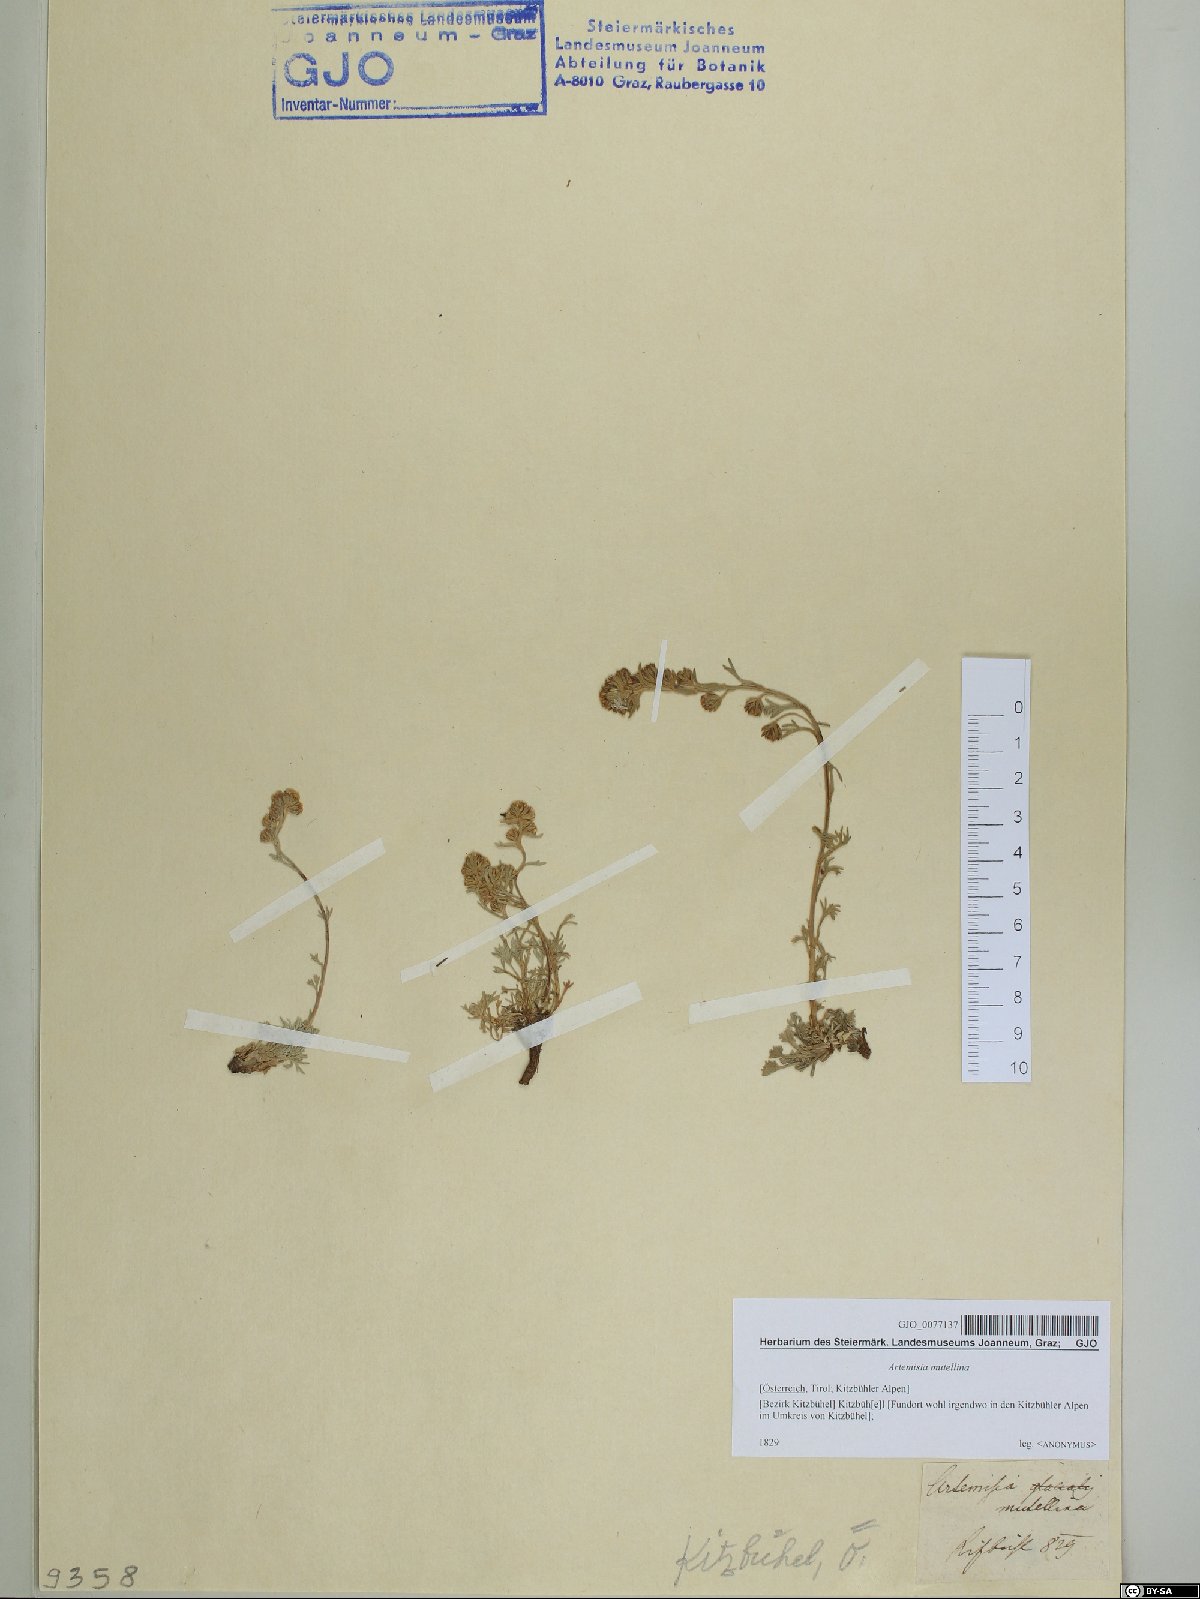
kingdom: Plantae
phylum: Tracheophyta
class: Magnoliopsida
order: Asterales
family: Asteraceae
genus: Artemisia
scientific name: Artemisia mutellina
